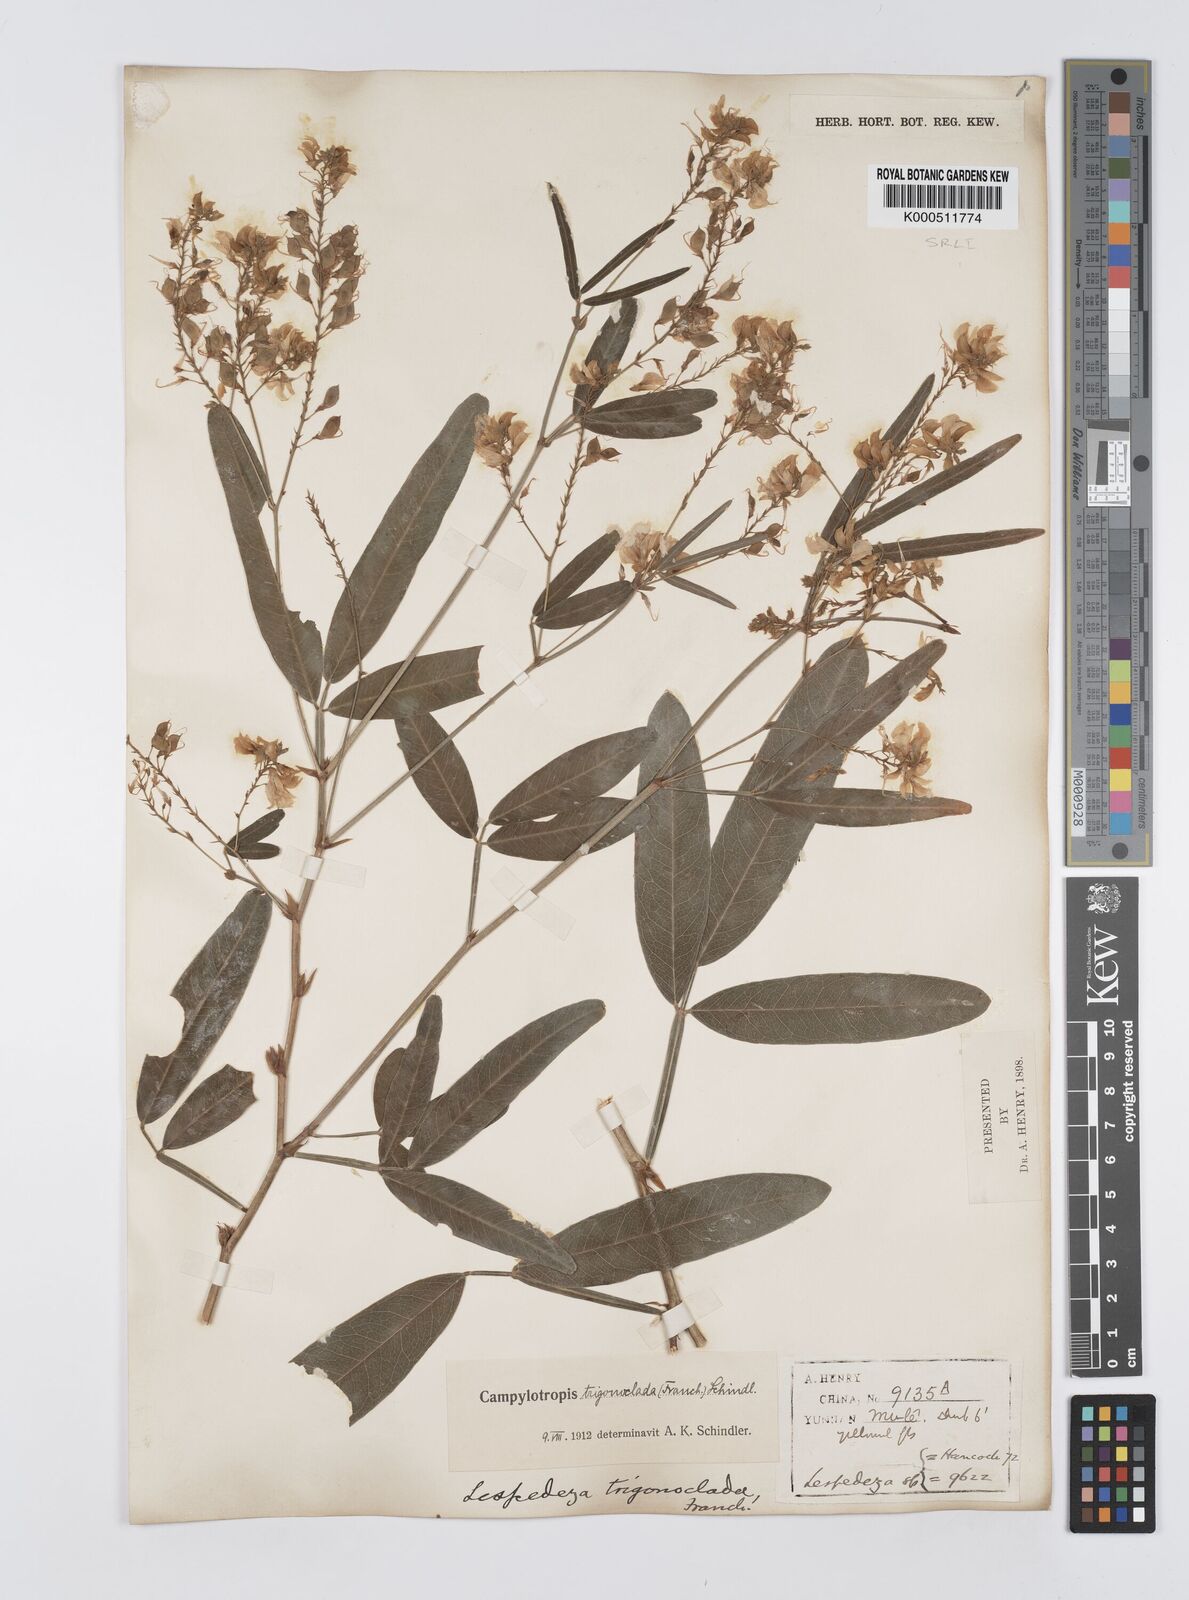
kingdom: Plantae
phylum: Tracheophyta
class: Magnoliopsida
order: Fabales
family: Fabaceae
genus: Campylotropis
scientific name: Campylotropis trigonoclada
